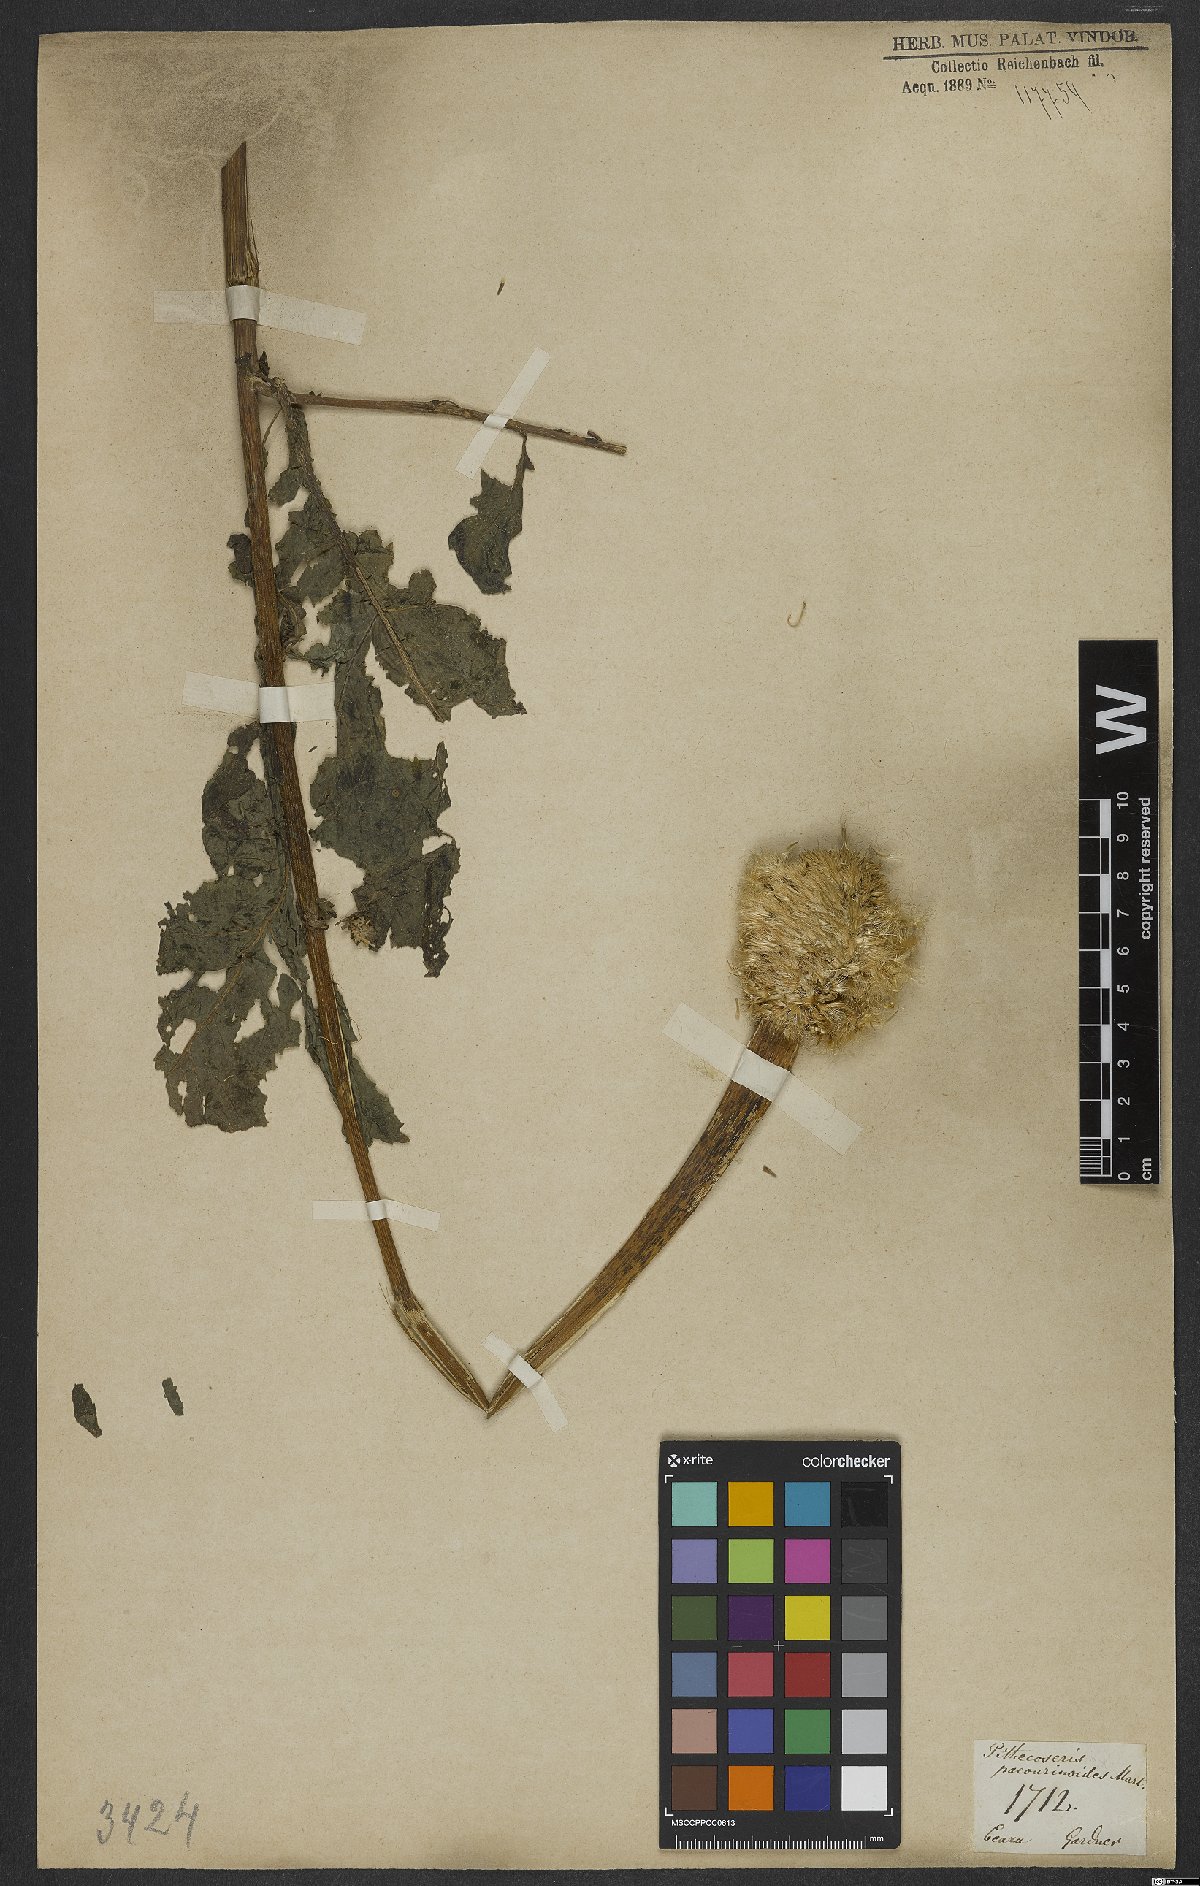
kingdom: Plantae
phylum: Tracheophyta
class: Magnoliopsida
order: Asterales
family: Asteraceae
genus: Chresta
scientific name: Chresta pacourinoides
